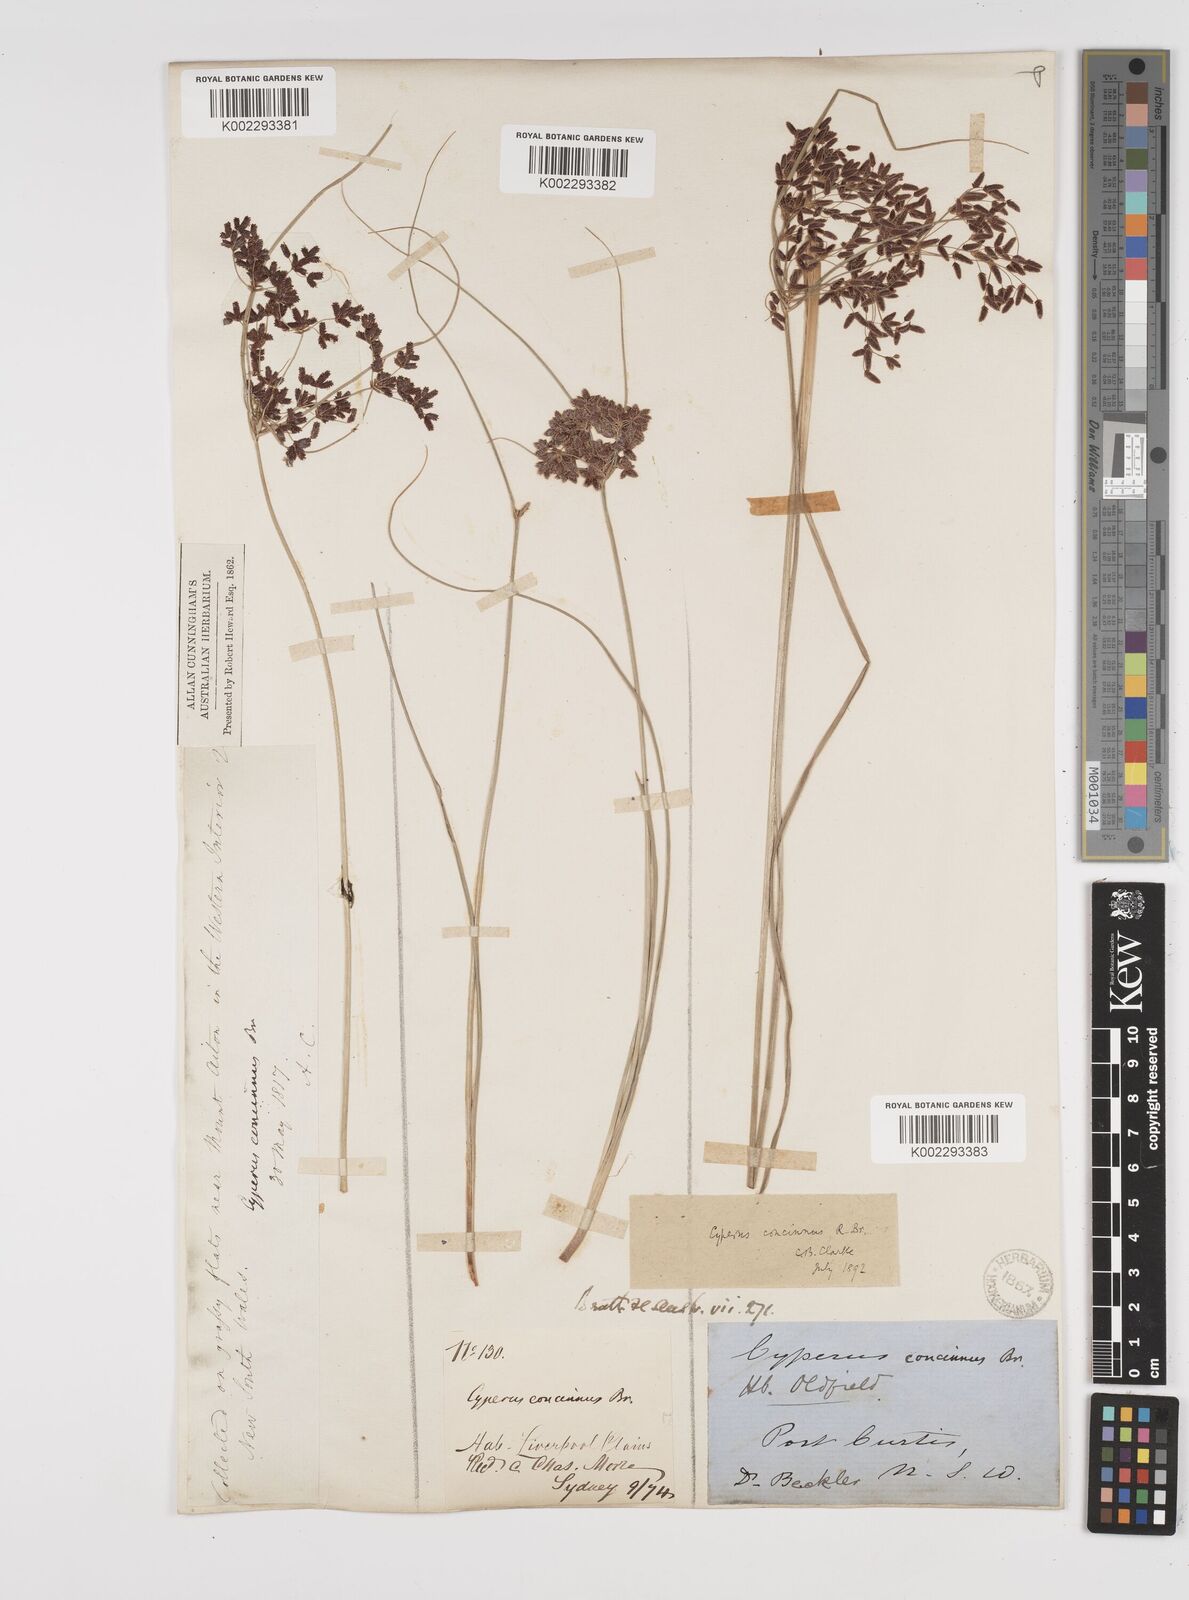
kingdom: Plantae
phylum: Tracheophyta
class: Liliopsida
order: Poales
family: Cyperaceae
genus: Cyperus
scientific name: Cyperus concinnus
